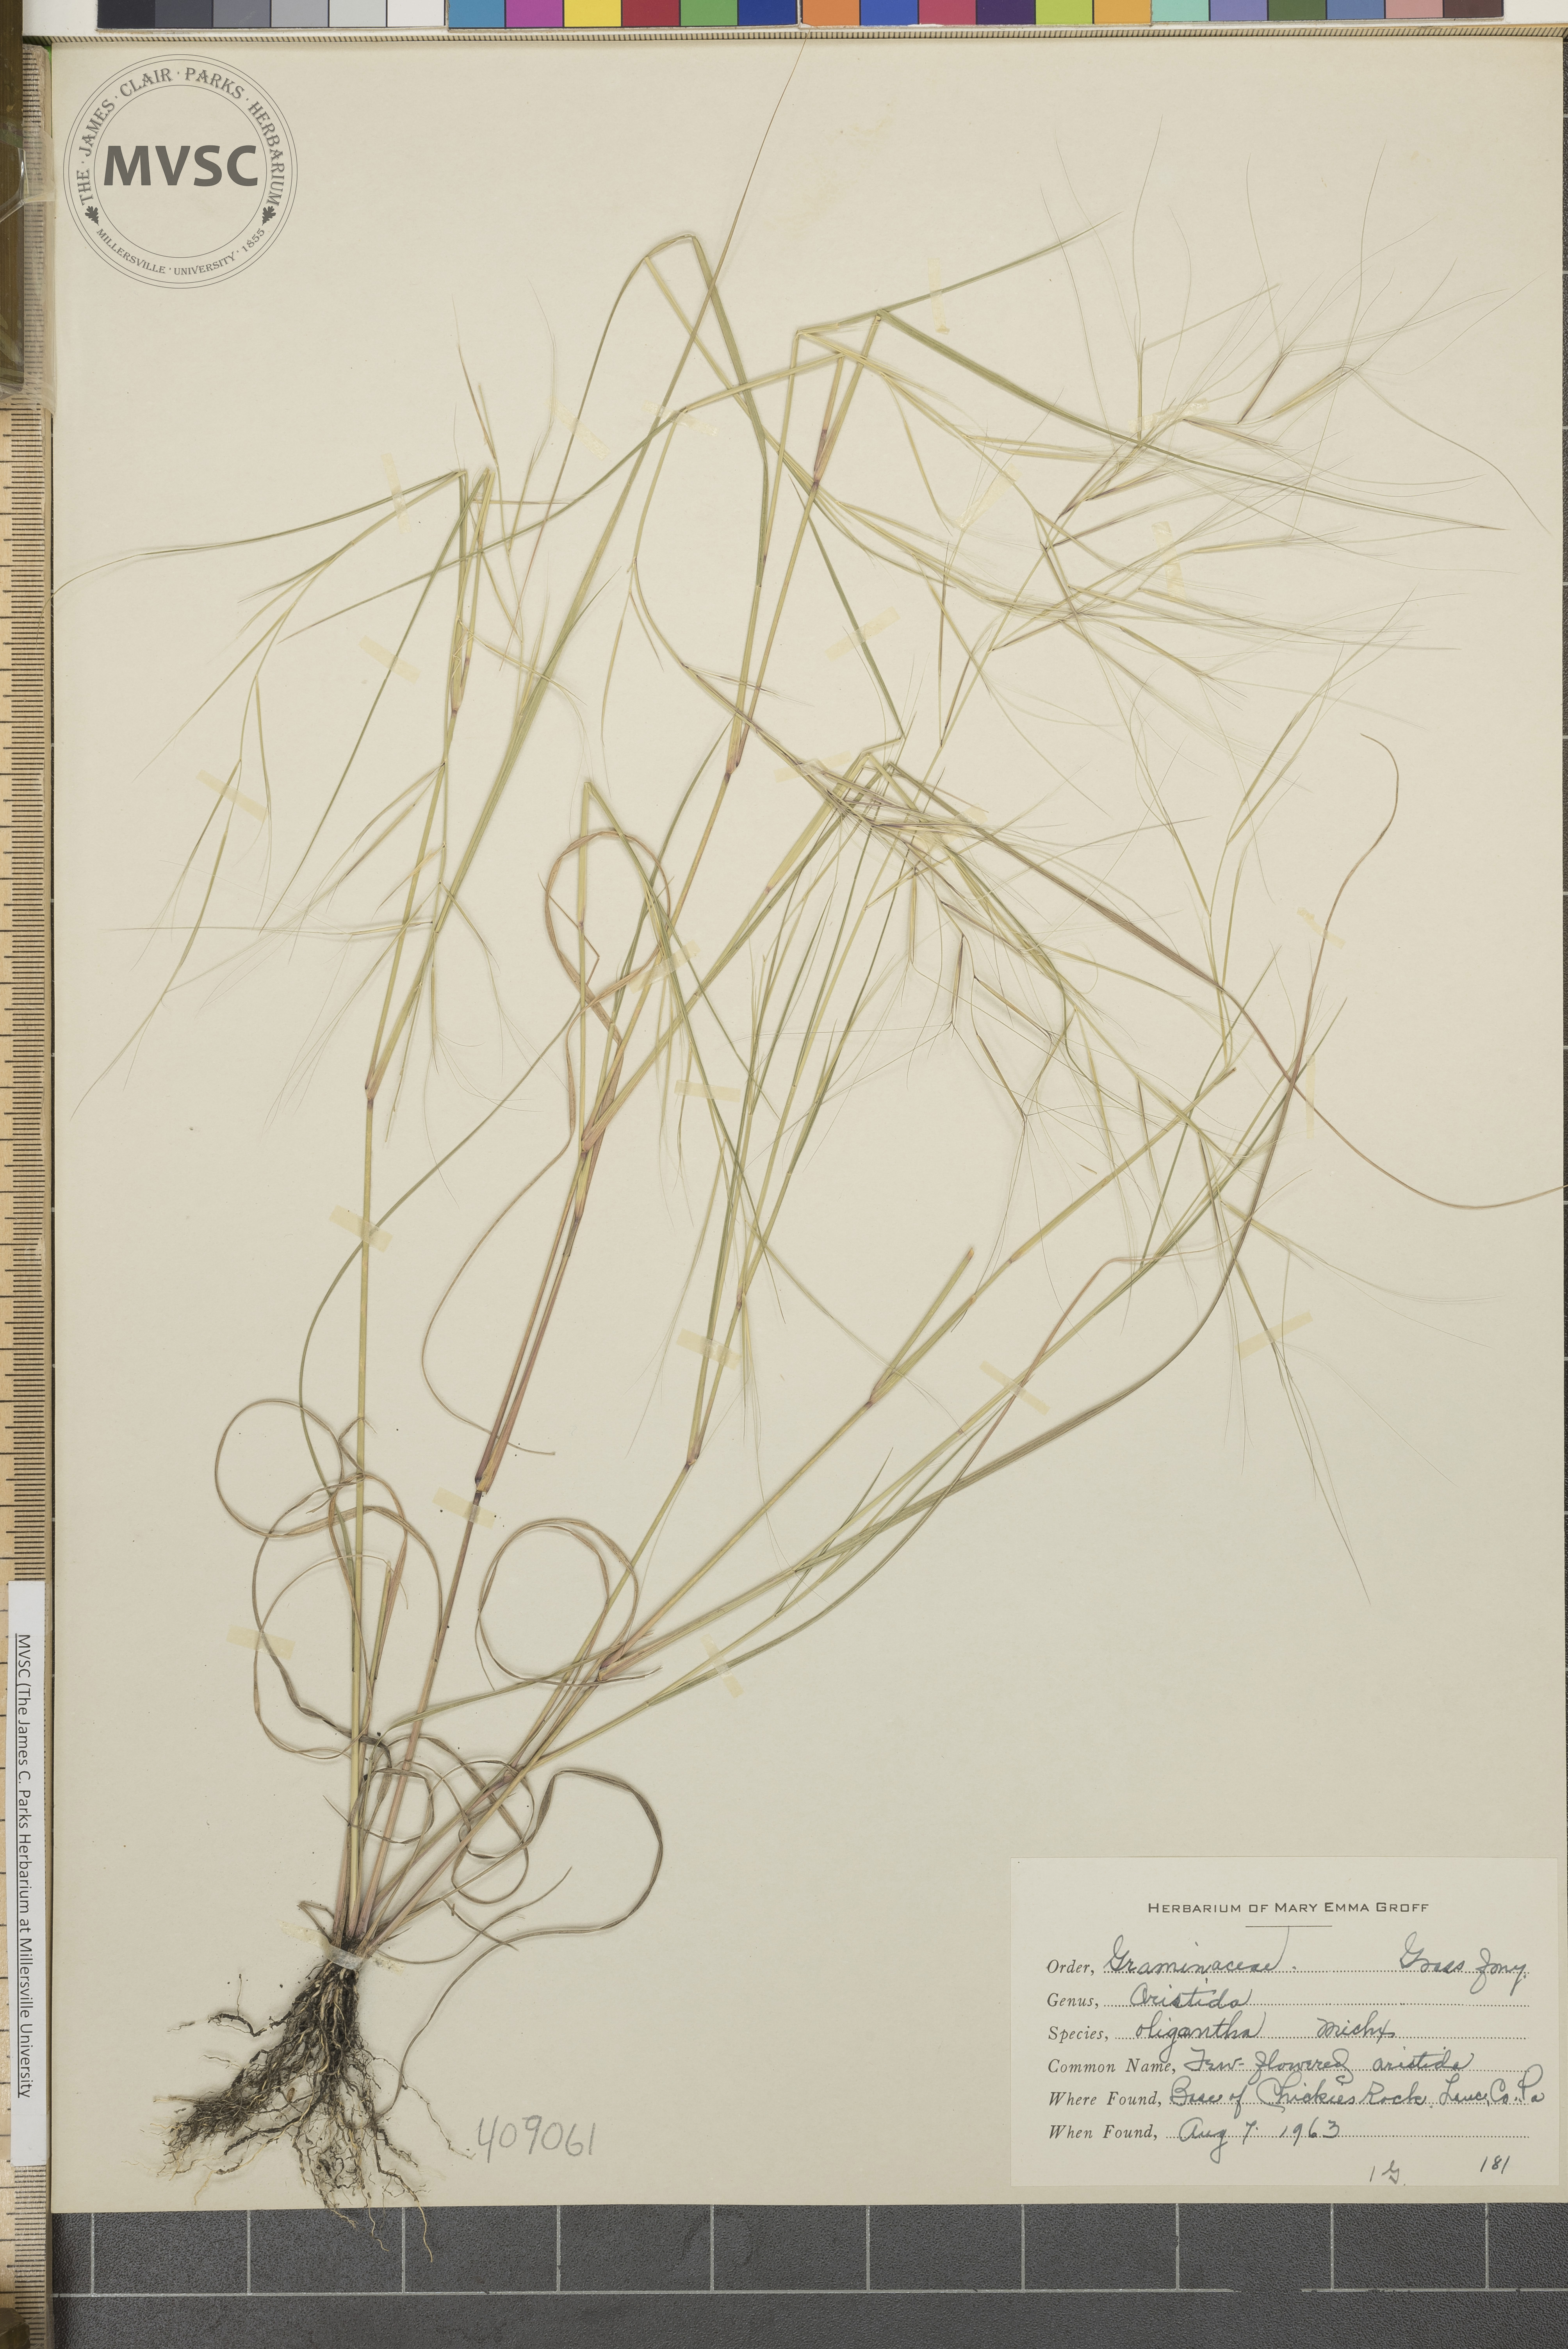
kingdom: Plantae
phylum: Tracheophyta
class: Liliopsida
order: Poales
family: Poaceae
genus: Aristida
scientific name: Aristida oligantha
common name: Few-flowered aristida
